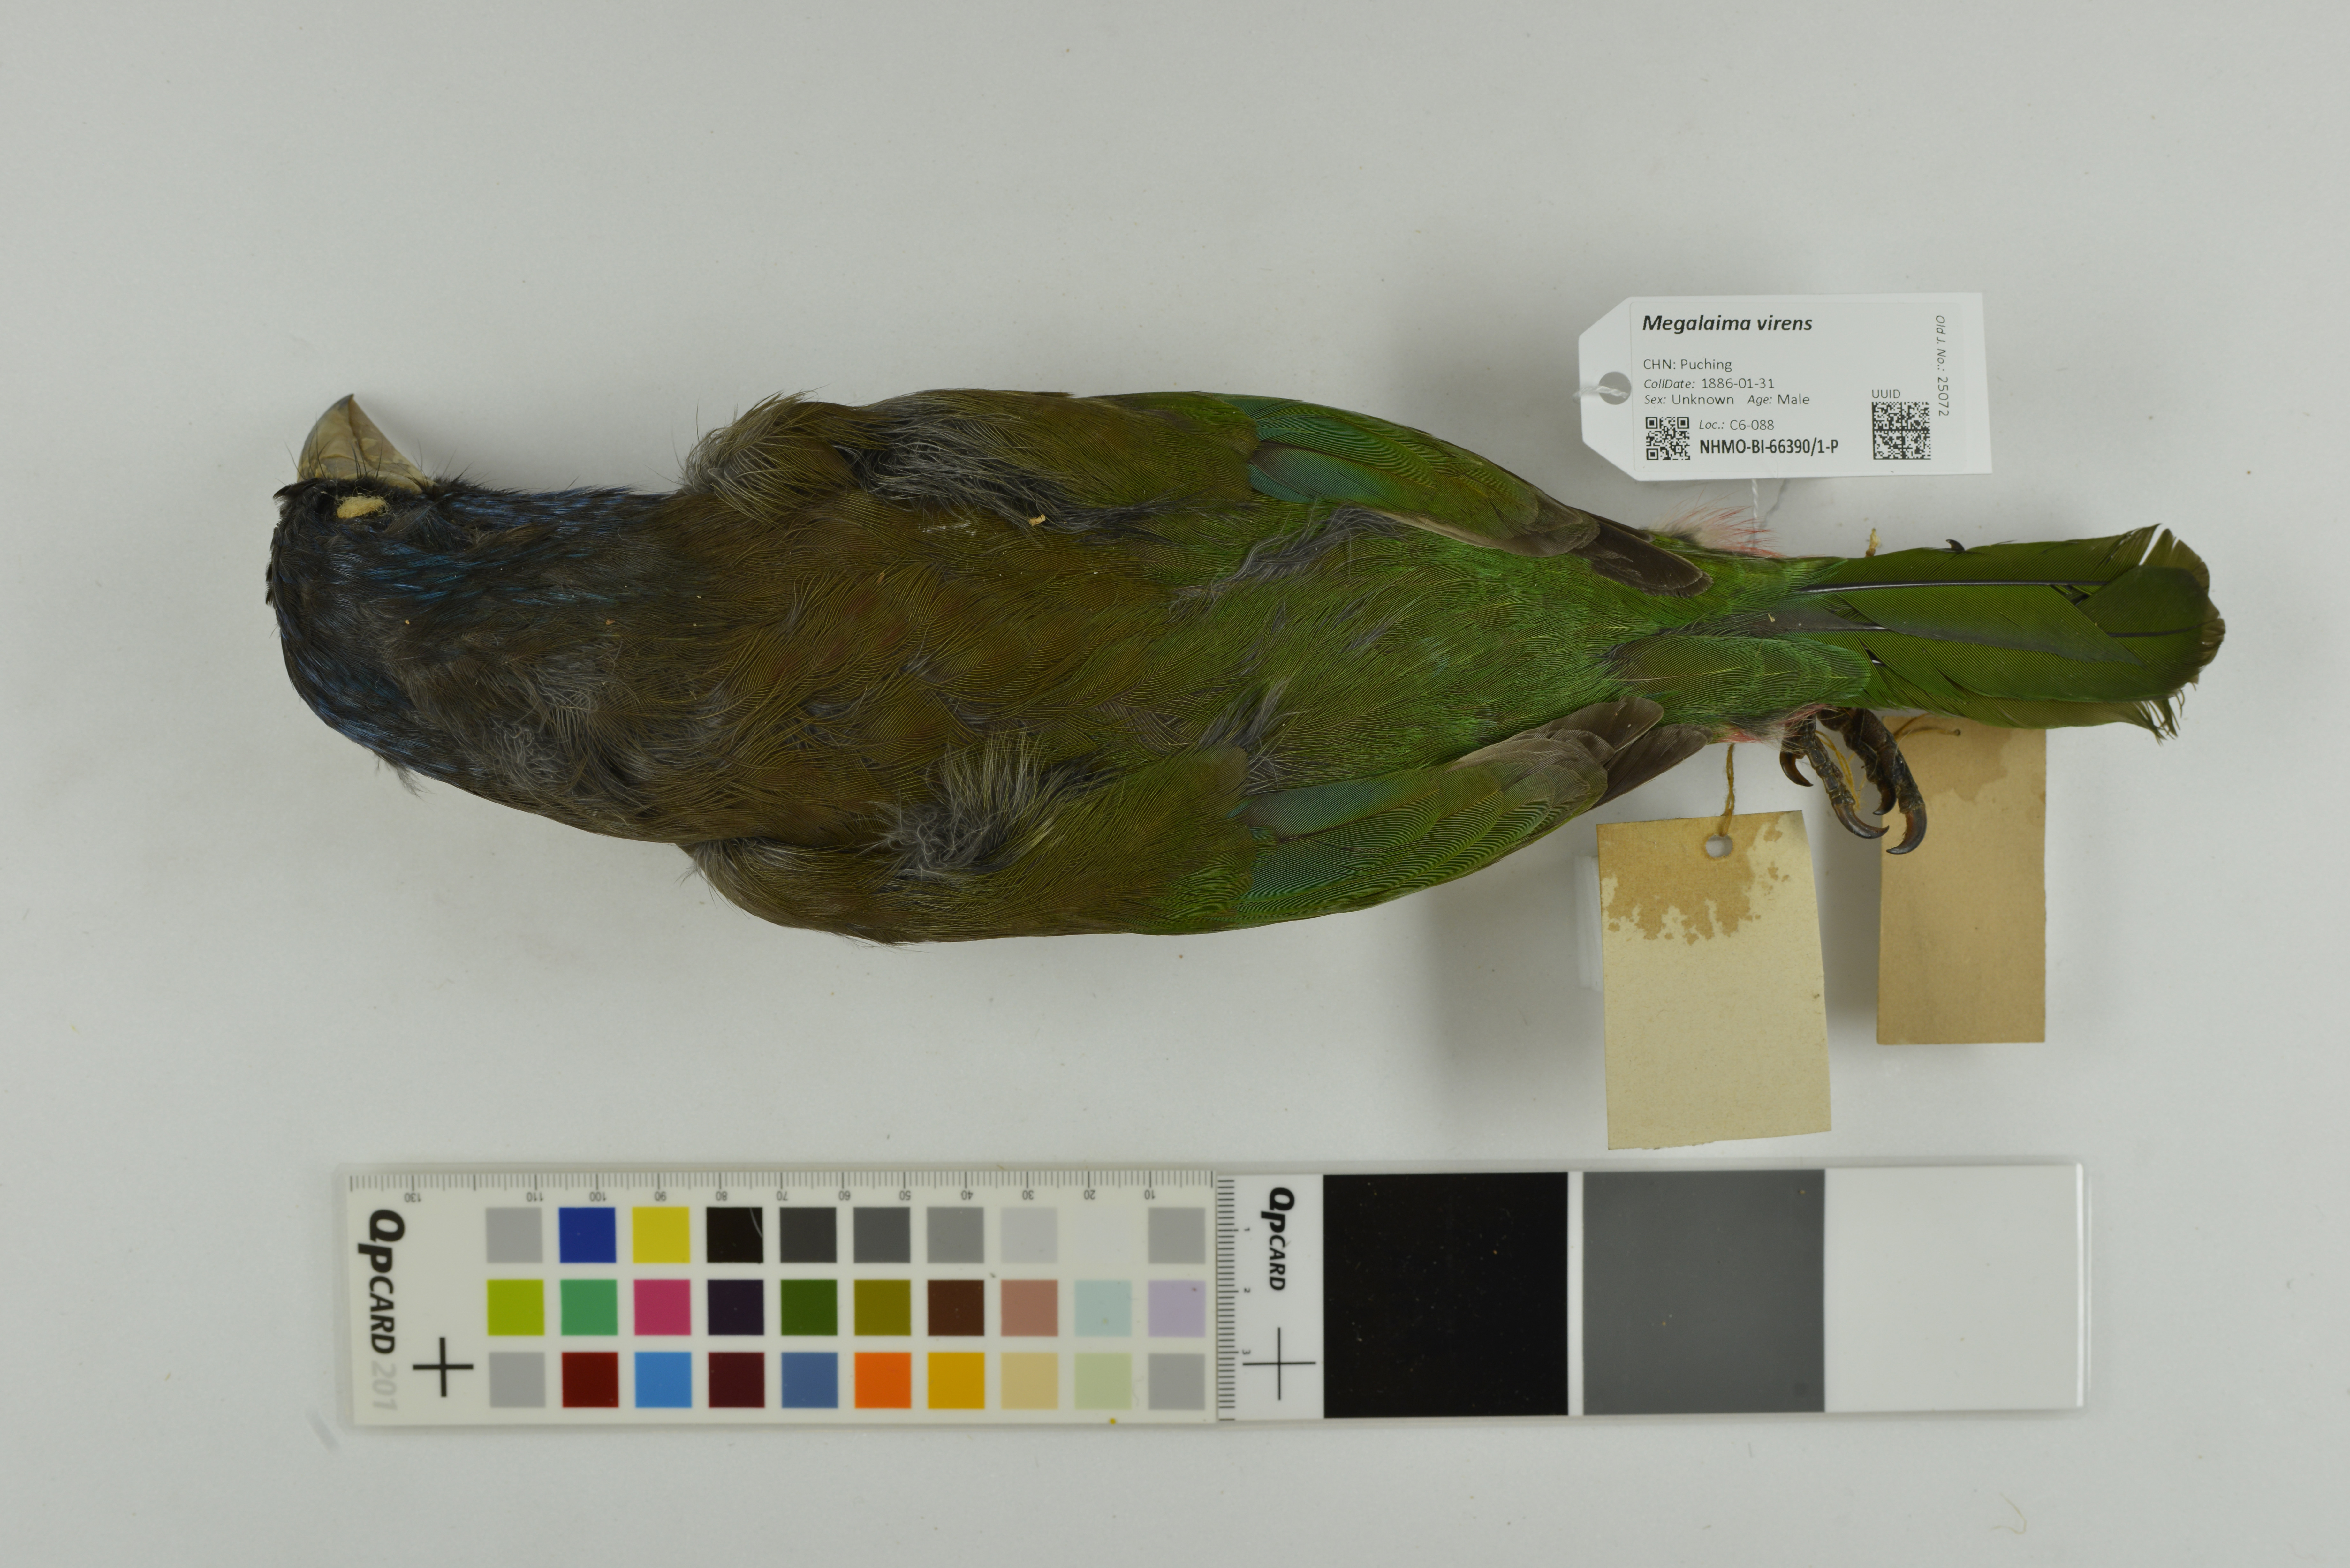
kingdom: Animalia
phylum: Chordata
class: Aves
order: Piciformes
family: Megalaimidae
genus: Psilopogon
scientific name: Psilopogon virens
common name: Great barbet
